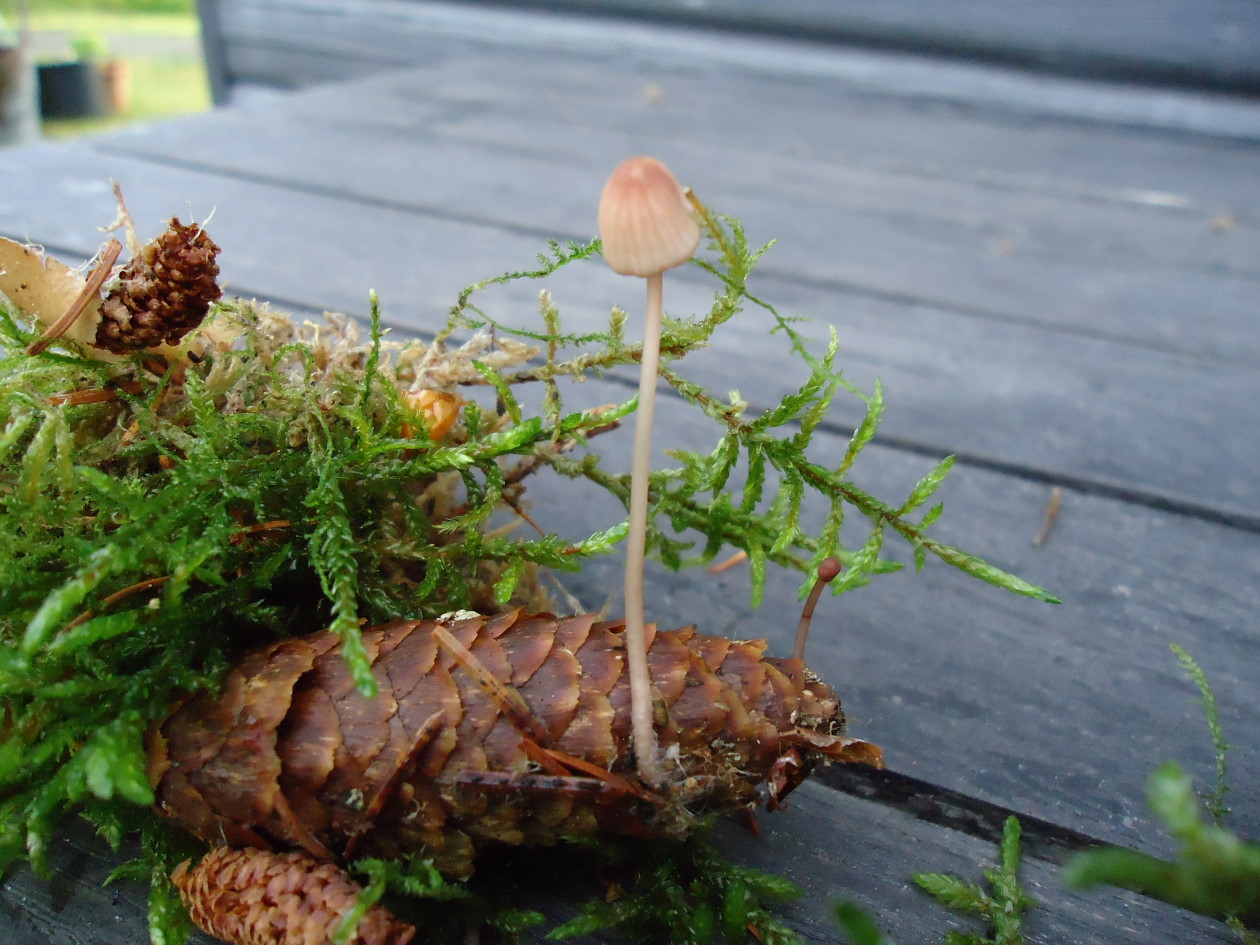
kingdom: Fungi
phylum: Basidiomycota
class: Agaricomycetes
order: Agaricales
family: Mycenaceae
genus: Mycena
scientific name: Mycena sanguinolenta
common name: rødmælket huesvamp
